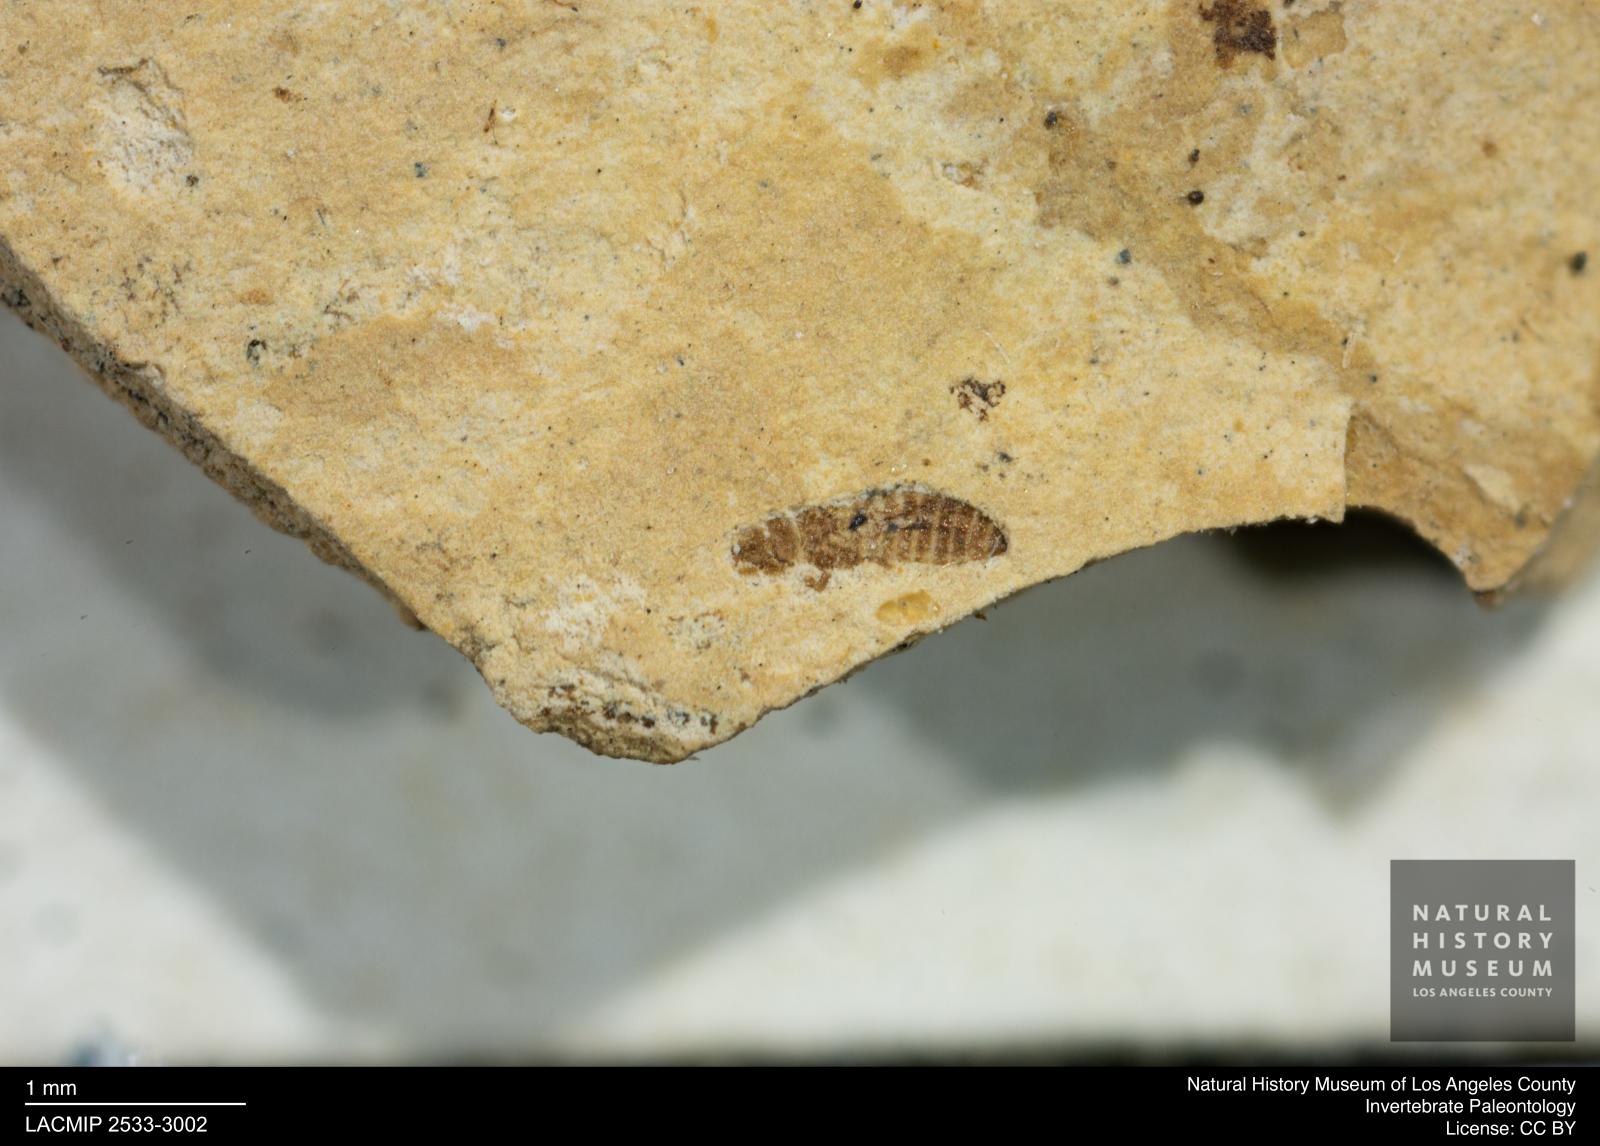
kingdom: Animalia
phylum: Arthropoda
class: Insecta
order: Thysanoptera
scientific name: Thysanoptera
